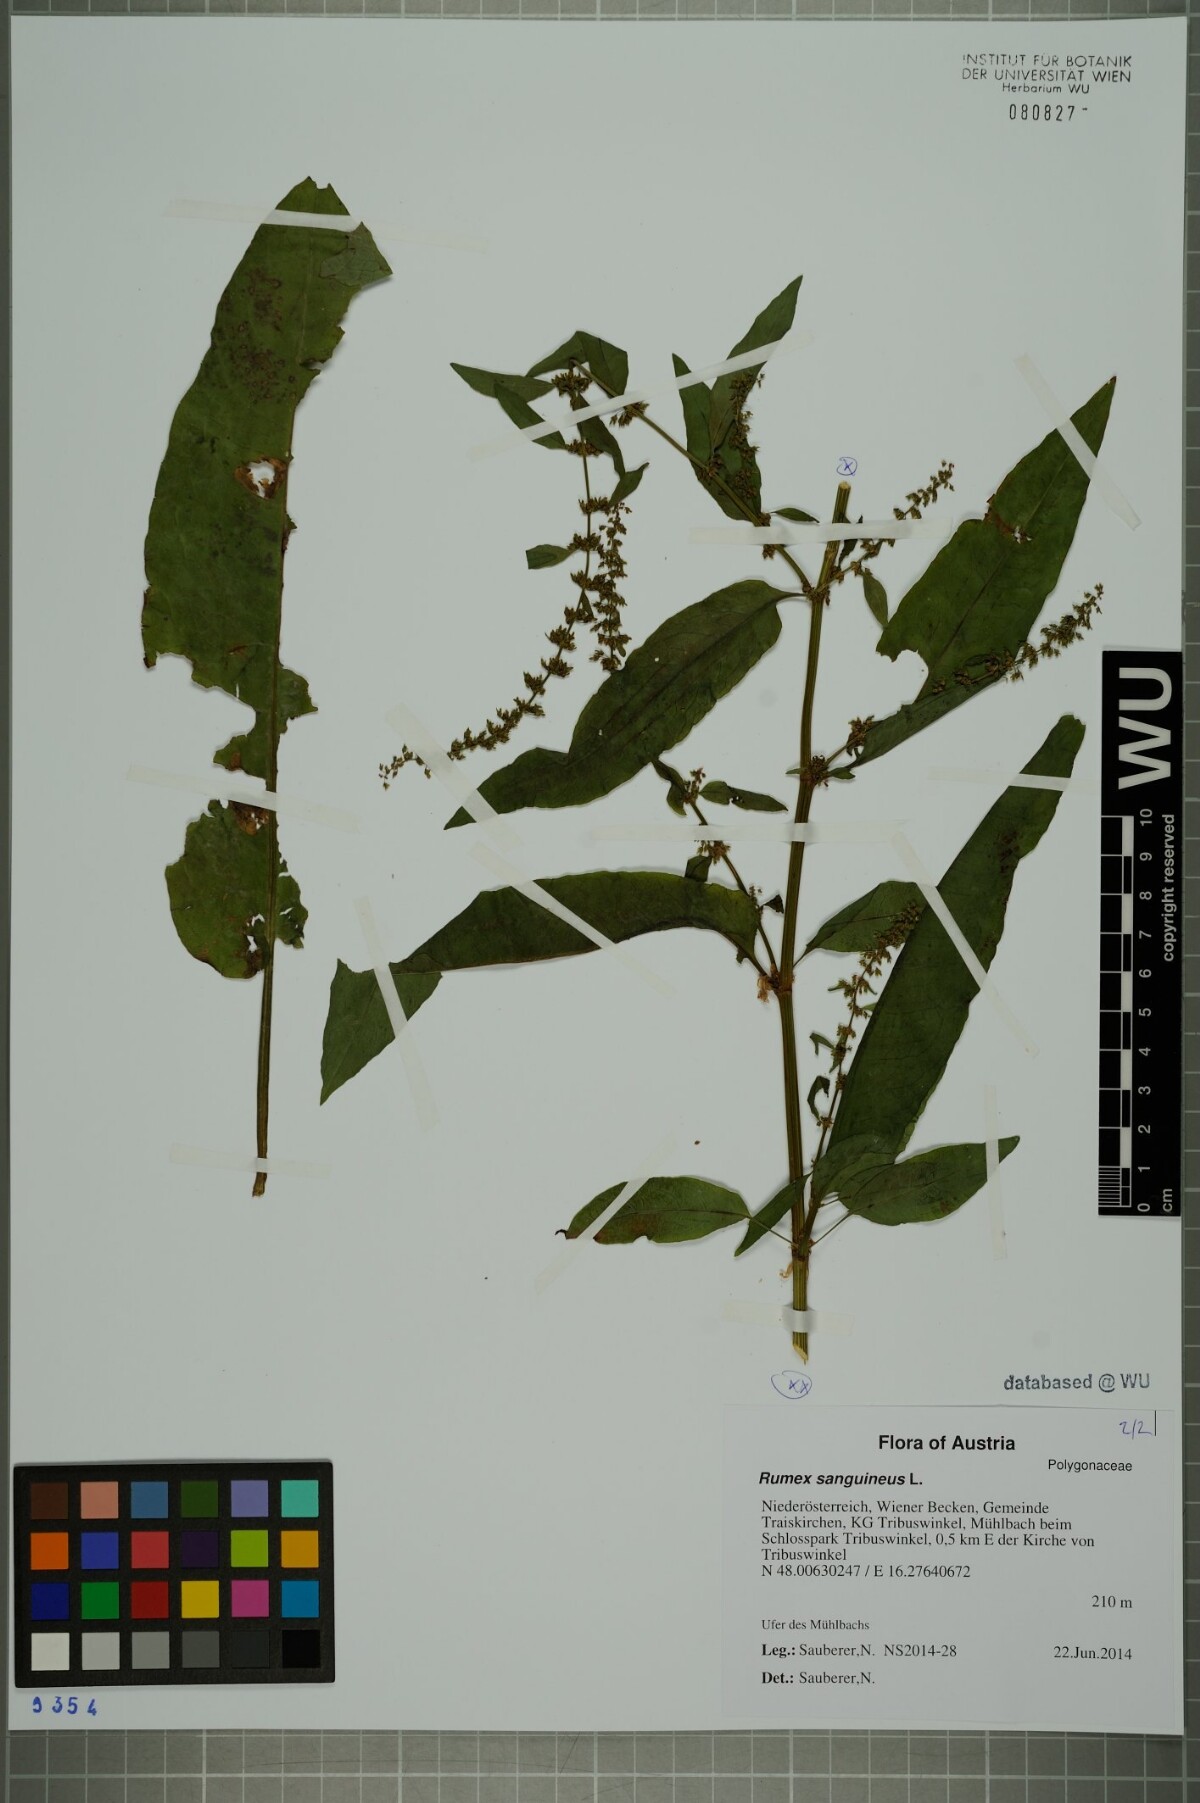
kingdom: Plantae
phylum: Tracheophyta
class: Magnoliopsida
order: Caryophyllales
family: Polygonaceae
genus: Rumex
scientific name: Rumex sanguineus
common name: Wood dock
